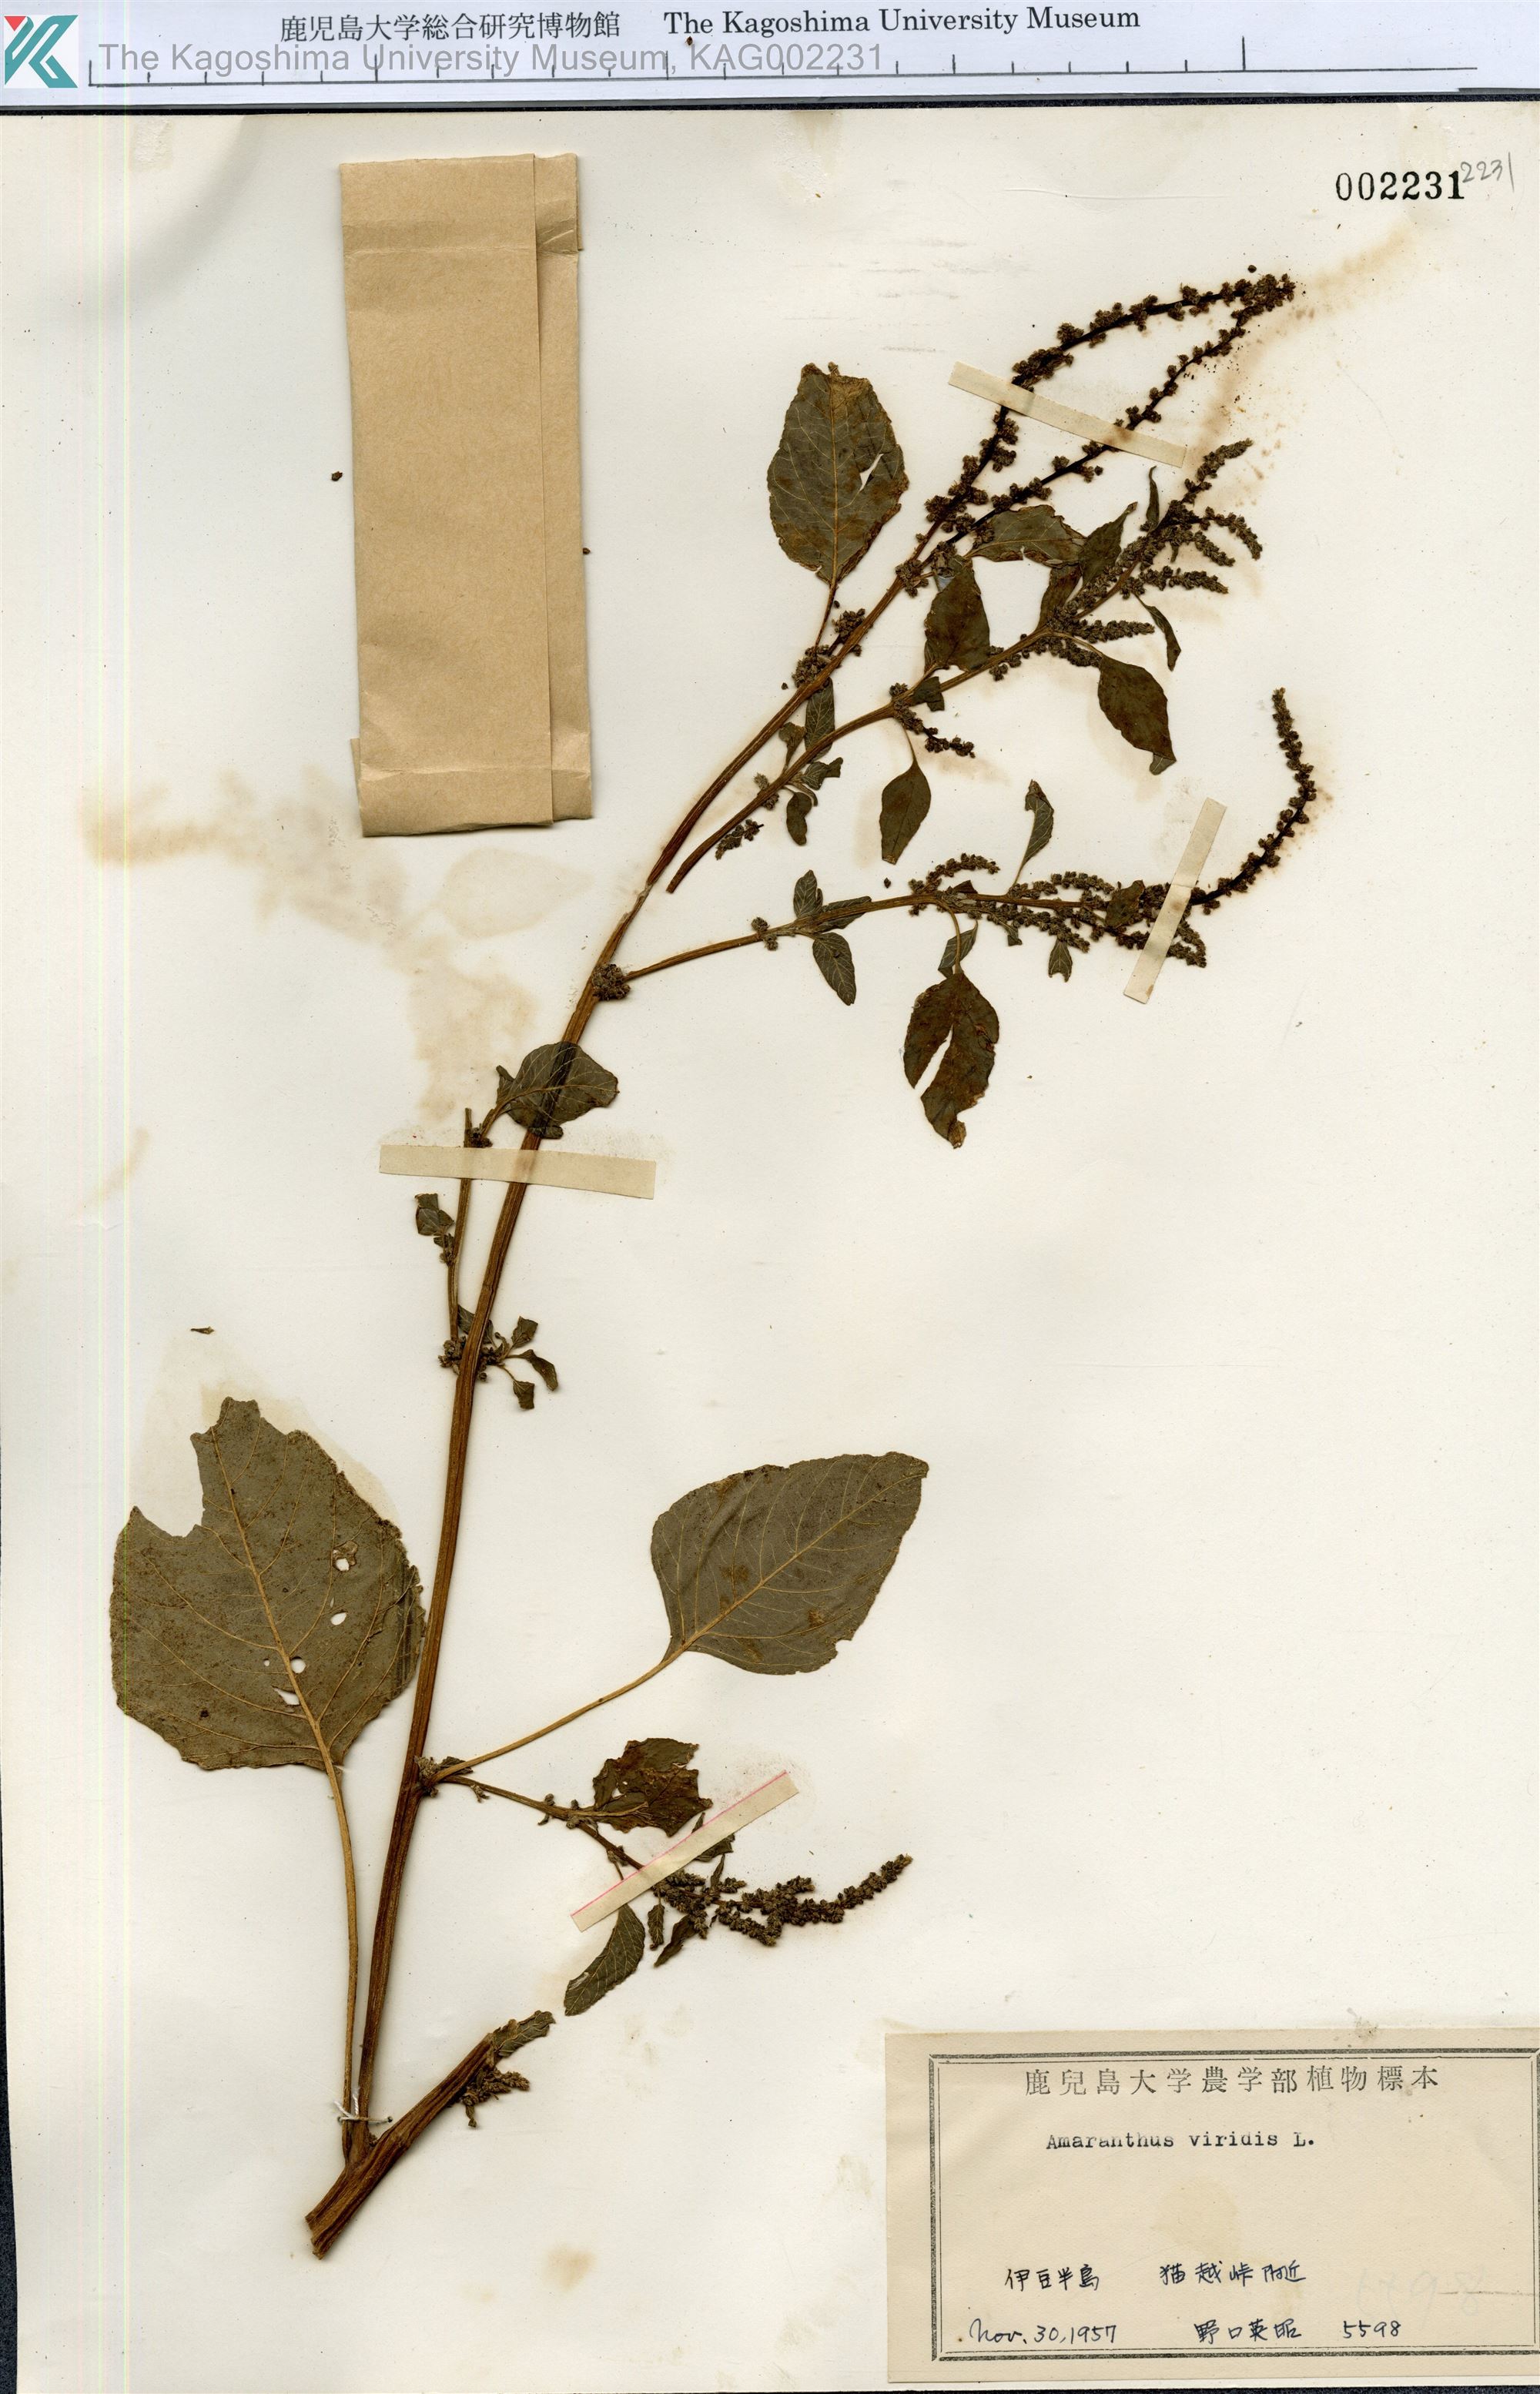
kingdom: Plantae
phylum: Tracheophyta
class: Magnoliopsida
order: Caryophyllales
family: Amaranthaceae
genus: Amaranthus
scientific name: Amaranthus viridis
